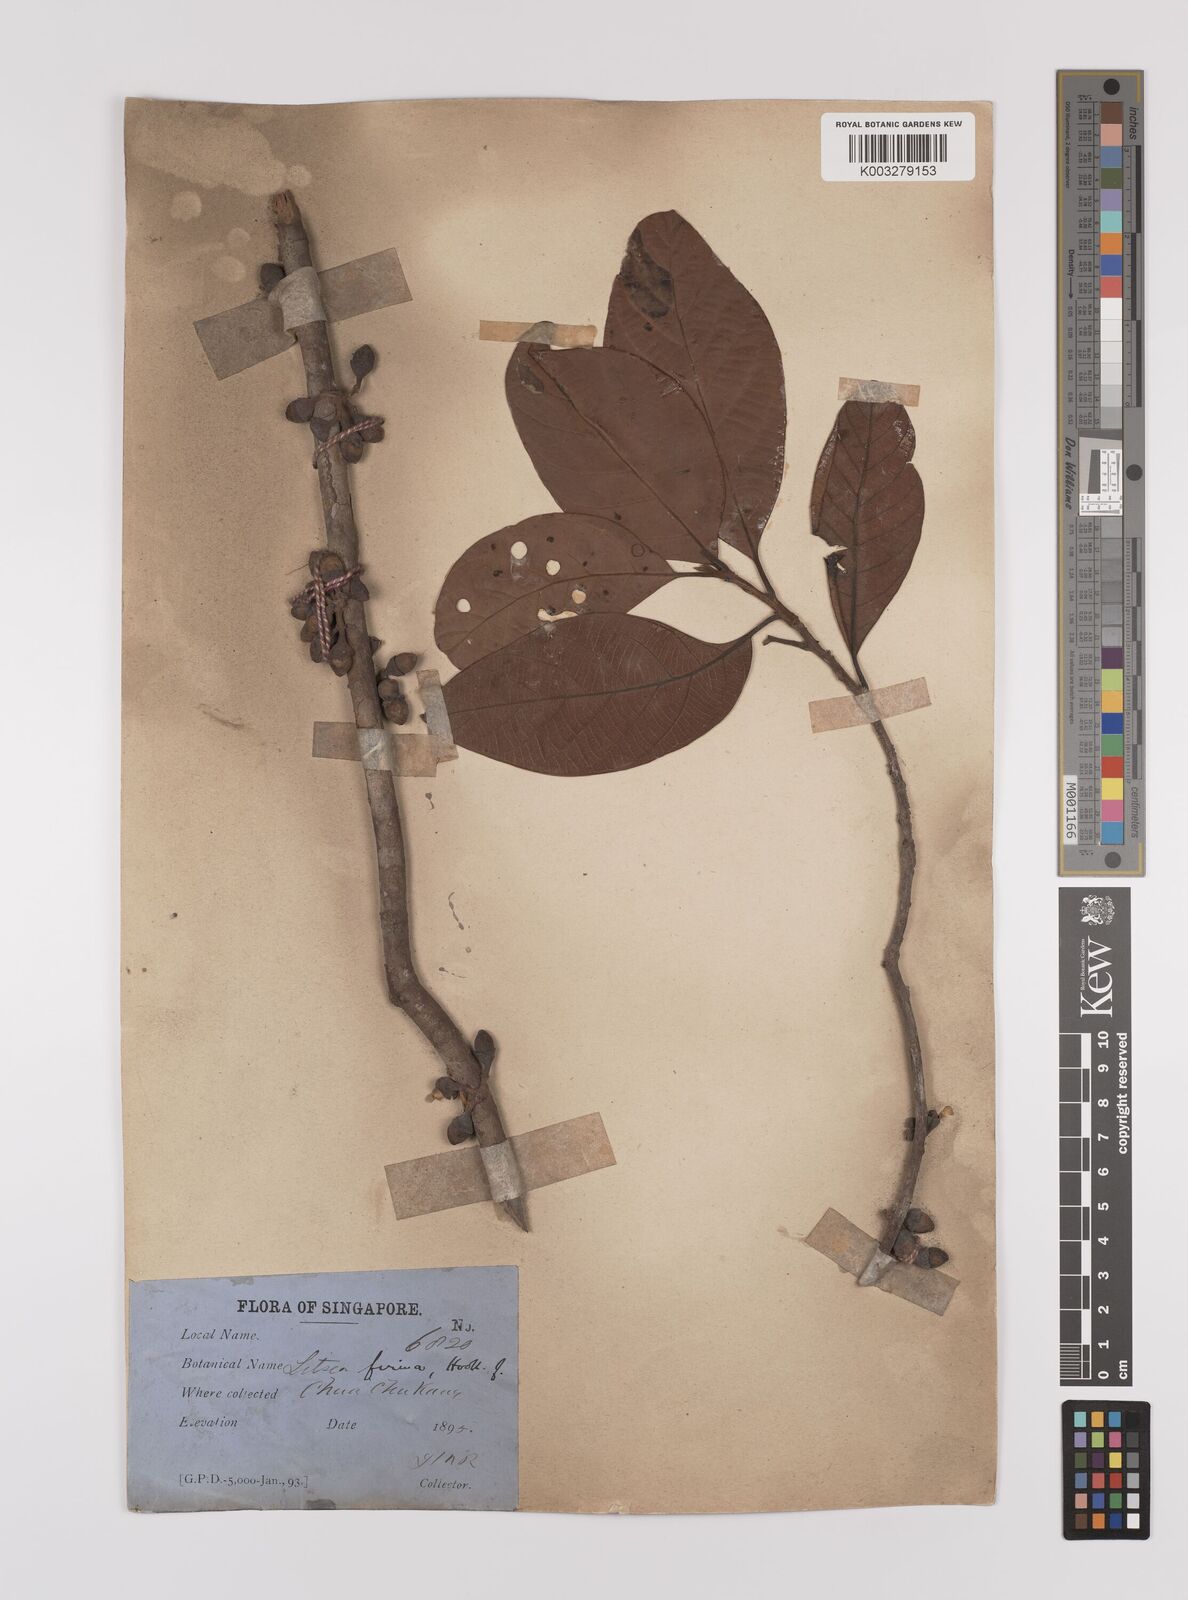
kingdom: Plantae
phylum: Tracheophyta
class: Magnoliopsida
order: Laurales
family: Lauraceae
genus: Litsea
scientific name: Litsea firma
